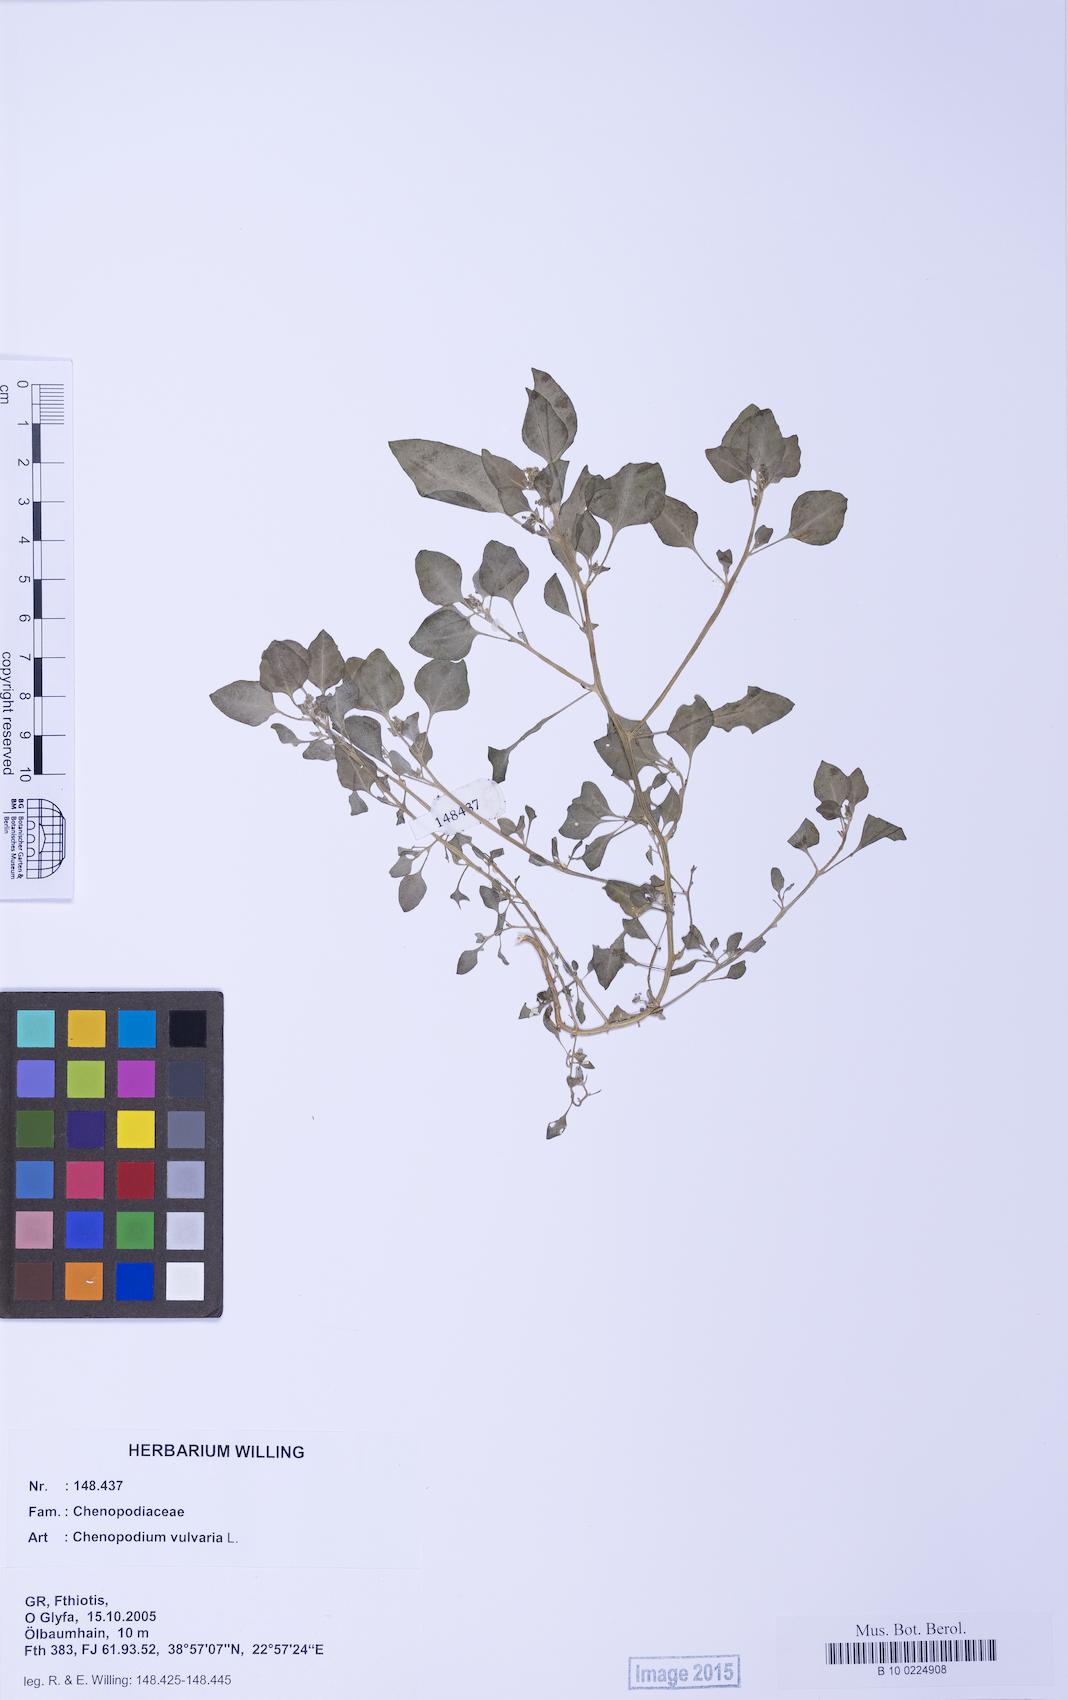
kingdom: Plantae
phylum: Tracheophyta
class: Magnoliopsida
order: Caryophyllales
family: Amaranthaceae
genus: Chenopodium
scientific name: Chenopodium vulvaria
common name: Stinking goosefoot
